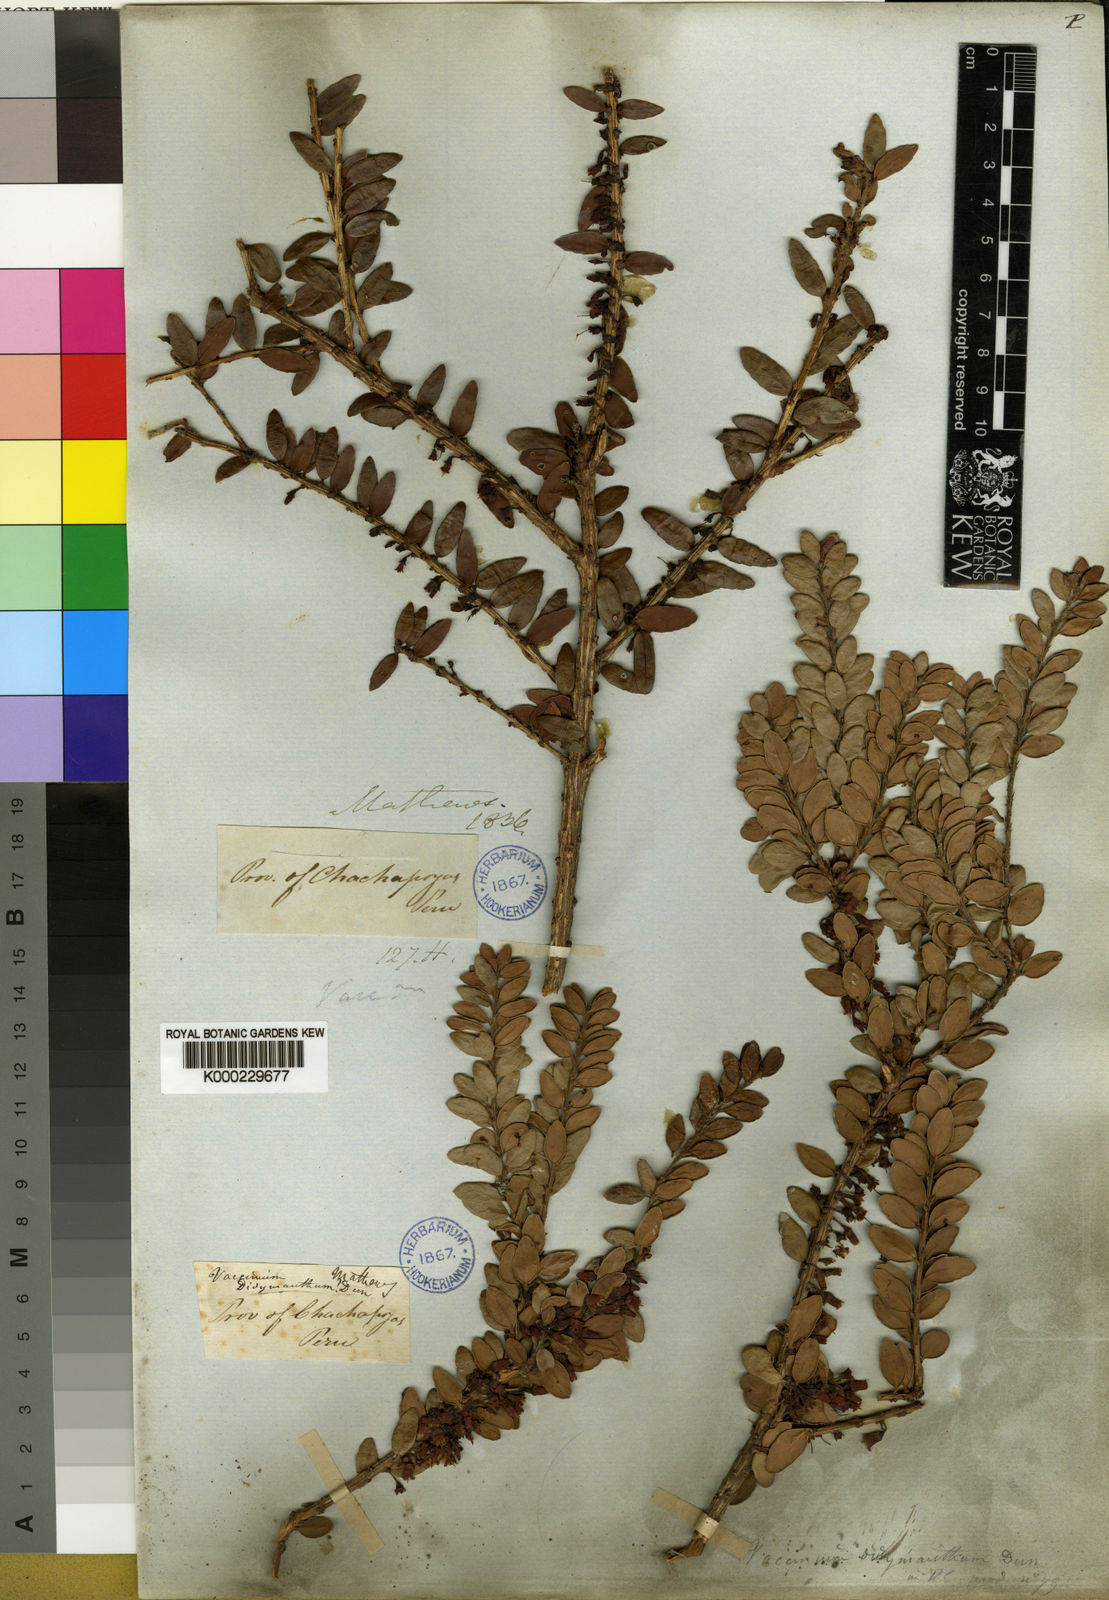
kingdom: Plantae
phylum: Tracheophyta
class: Magnoliopsida
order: Ericales
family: Ericaceae
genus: Vaccinium
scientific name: Vaccinium didymanthum
